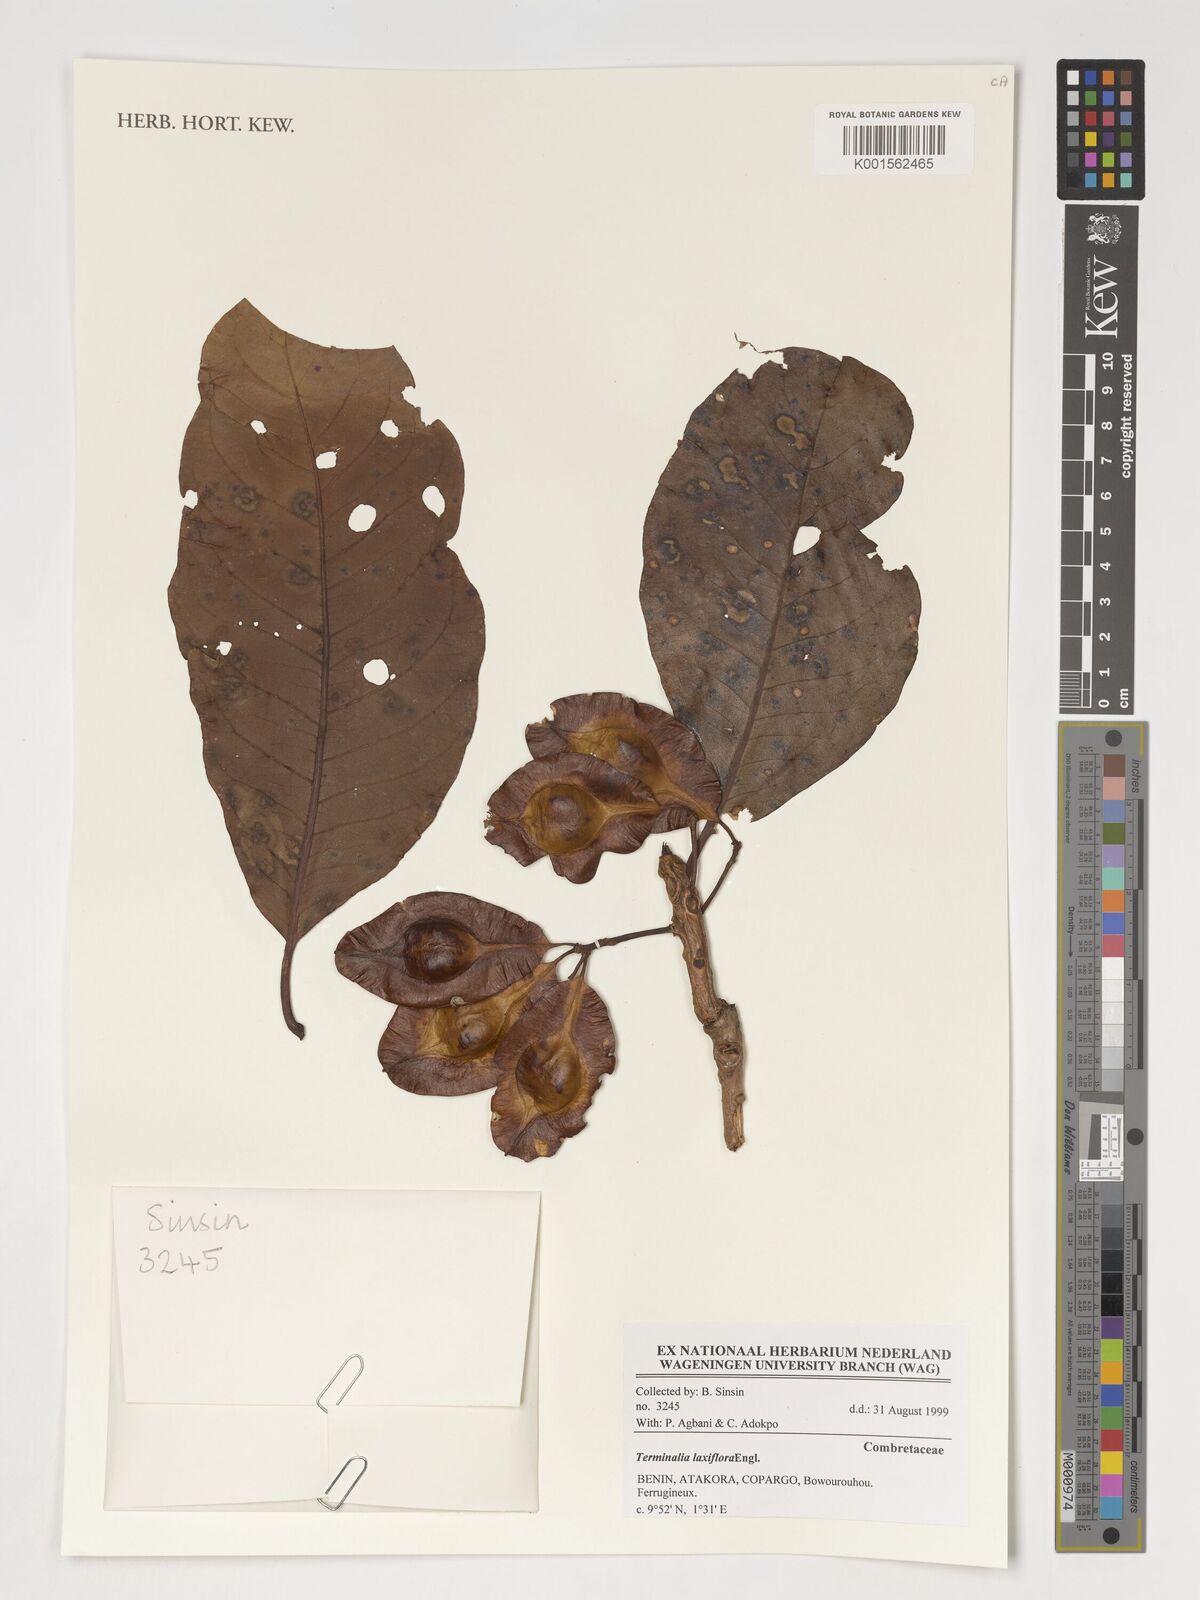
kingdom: Plantae
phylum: Tracheophyta
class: Magnoliopsida
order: Myrtales
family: Combretaceae
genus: Terminalia
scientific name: Terminalia laxiflora
